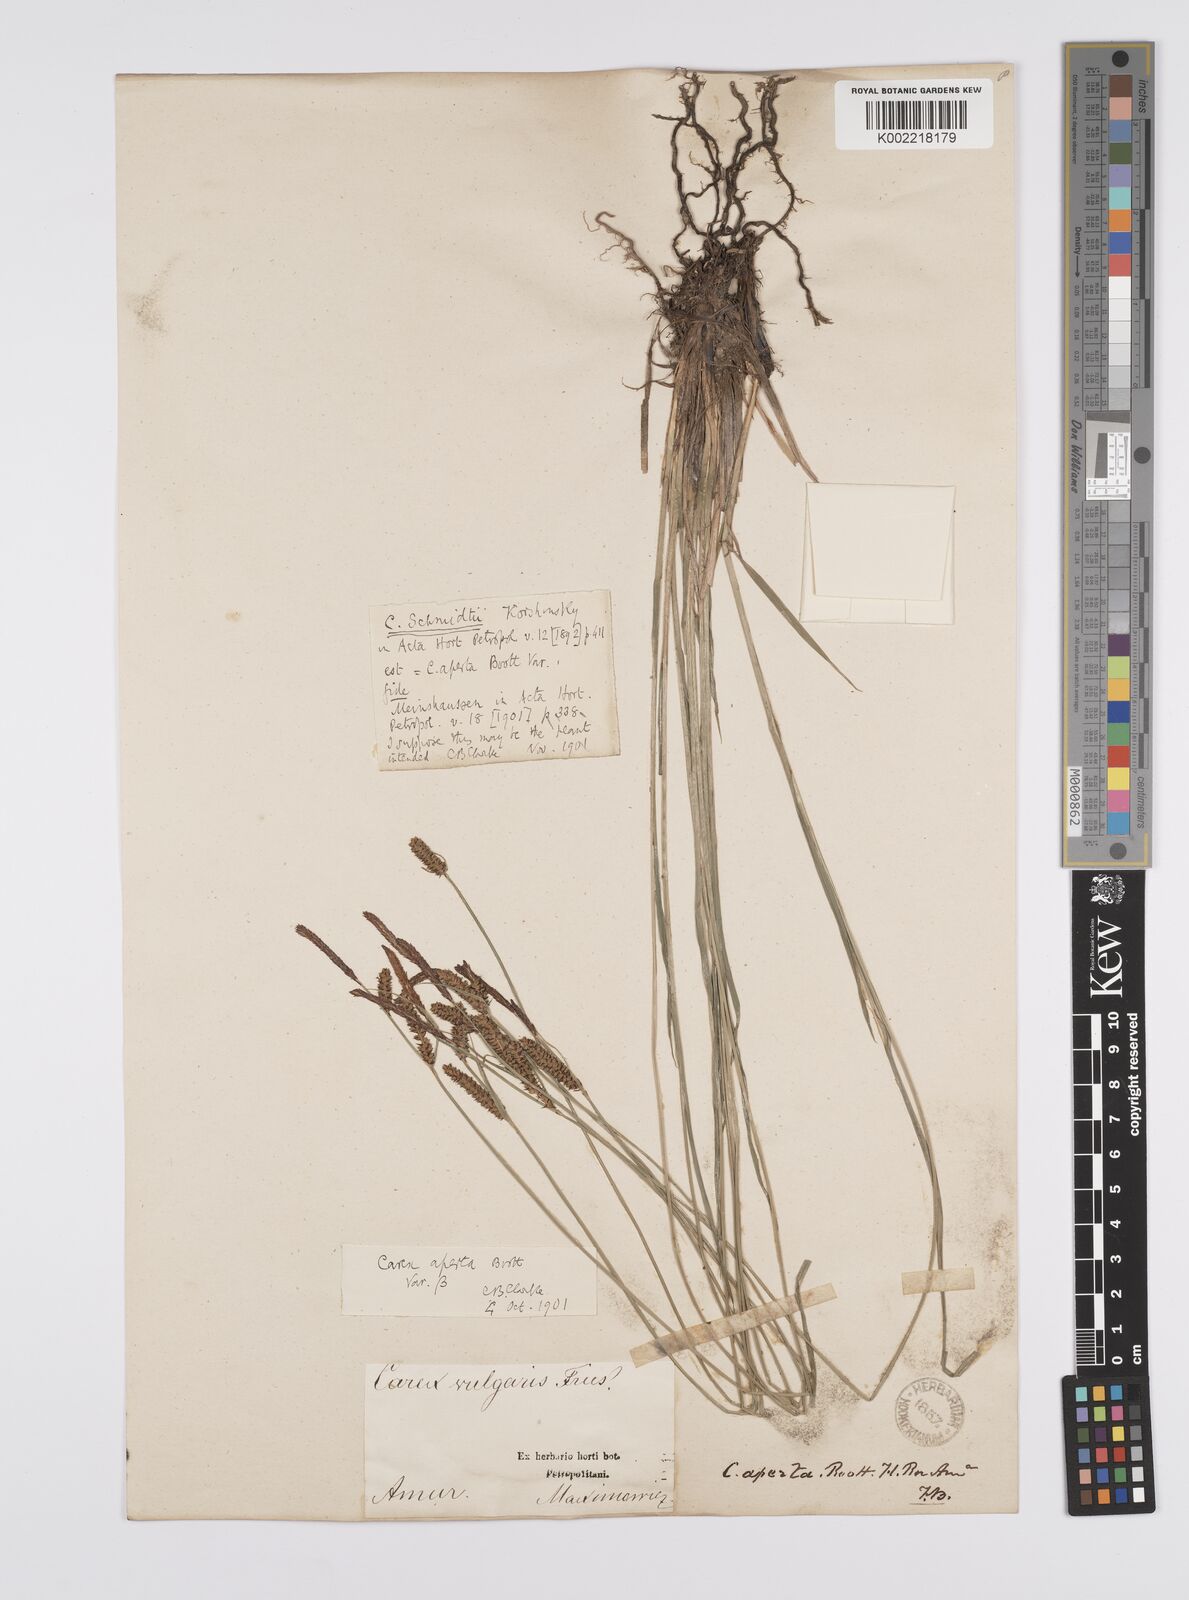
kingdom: Plantae
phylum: Tracheophyta
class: Liliopsida
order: Poales
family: Cyperaceae
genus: Carex
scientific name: Carex aperta
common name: Columbia sedge
